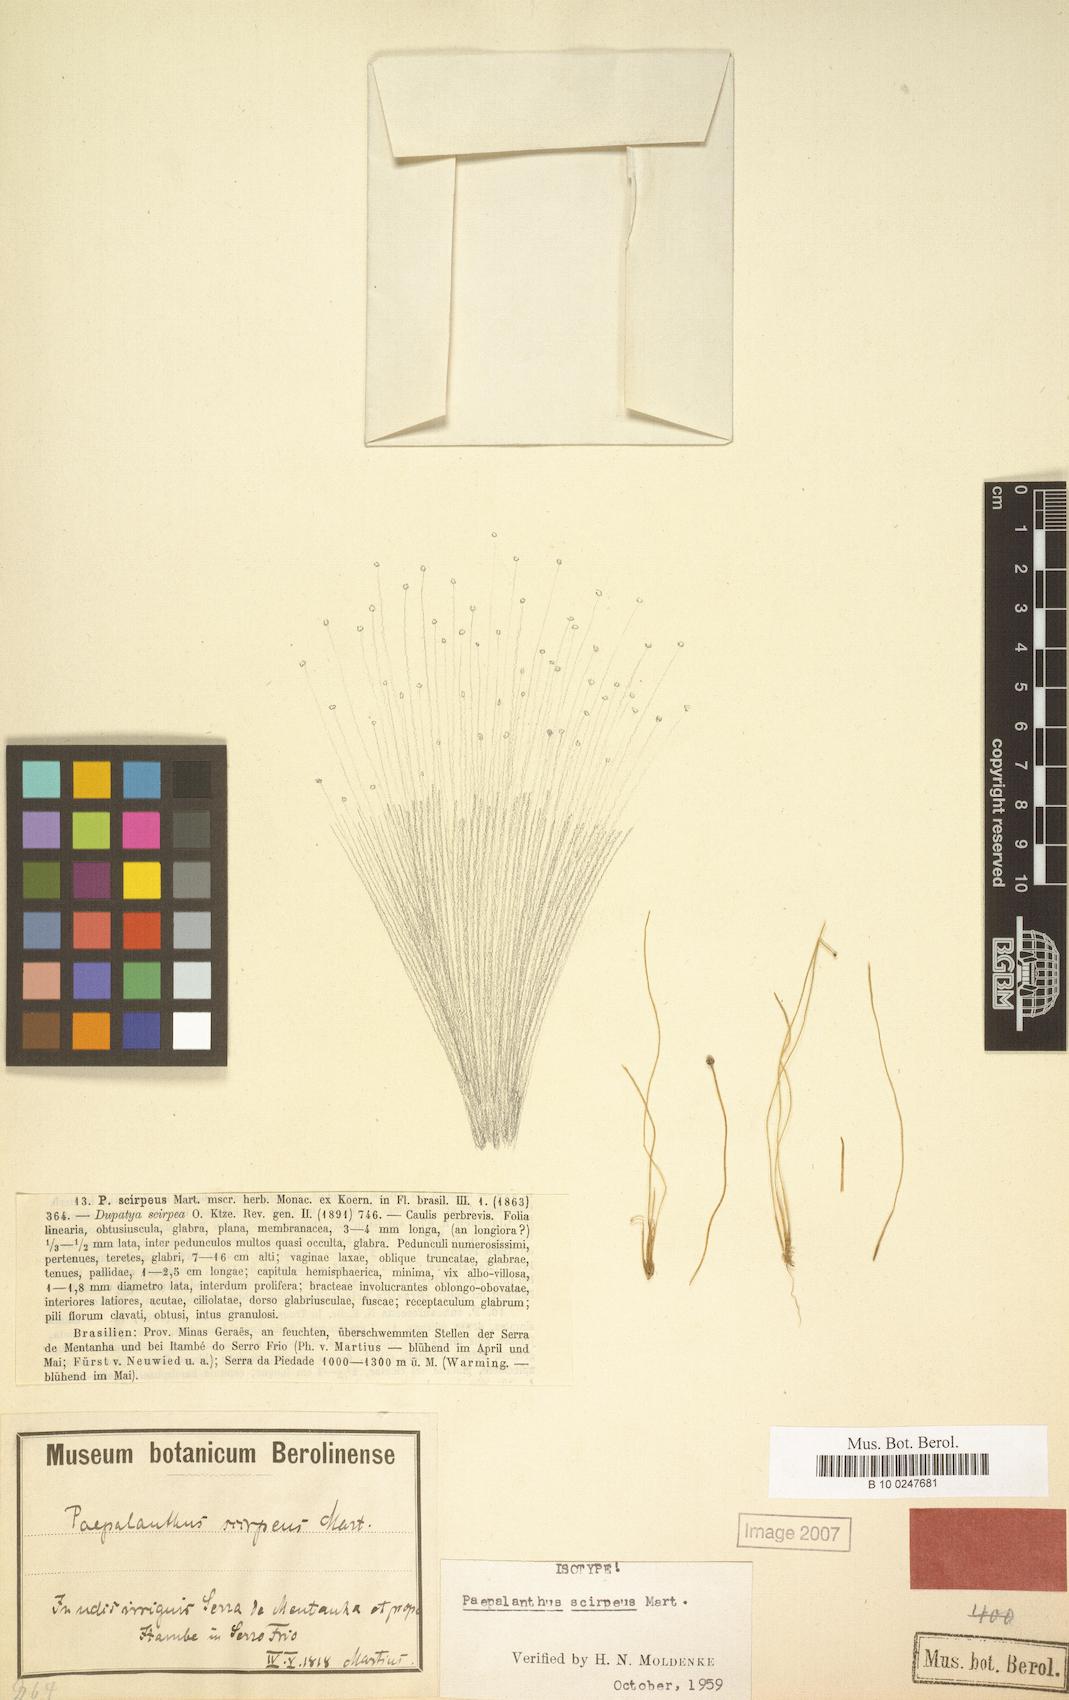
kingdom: Plantae
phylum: Tracheophyta
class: Liliopsida
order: Poales
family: Eriocaulaceae
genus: Paepalanthus
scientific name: Paepalanthus scirpeus
